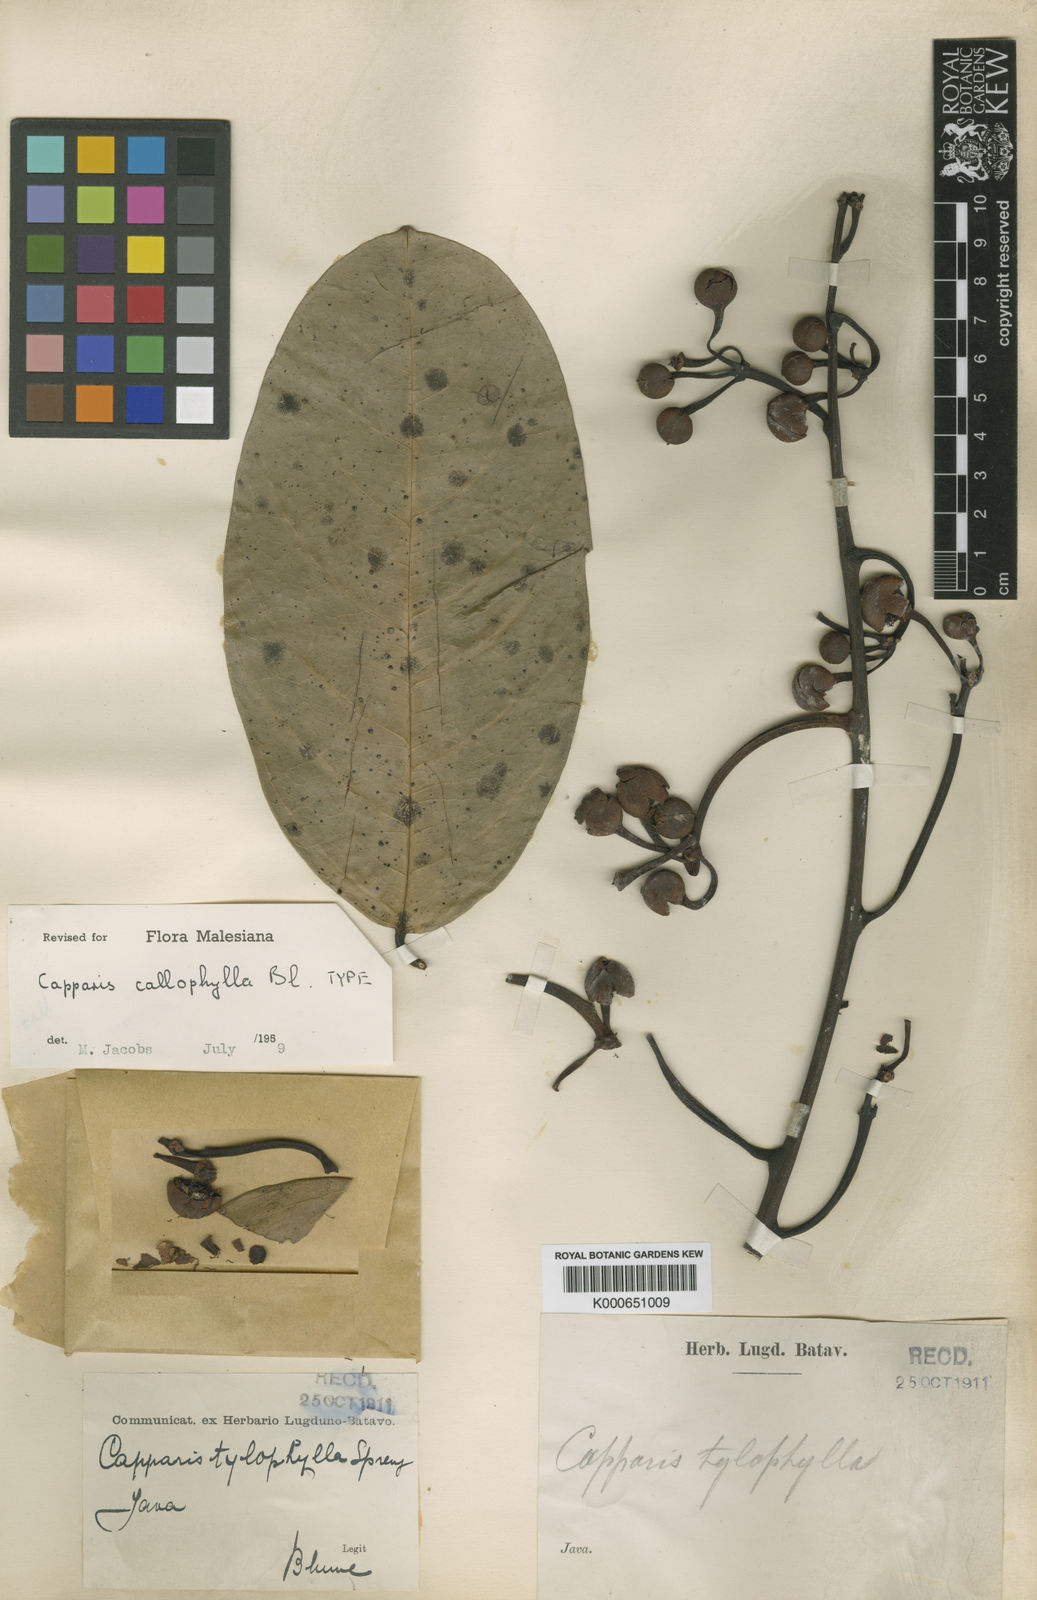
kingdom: Plantae
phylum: Tracheophyta
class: Magnoliopsida
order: Brassicales
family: Capparaceae
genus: Capparis
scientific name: Capparis callophylla
